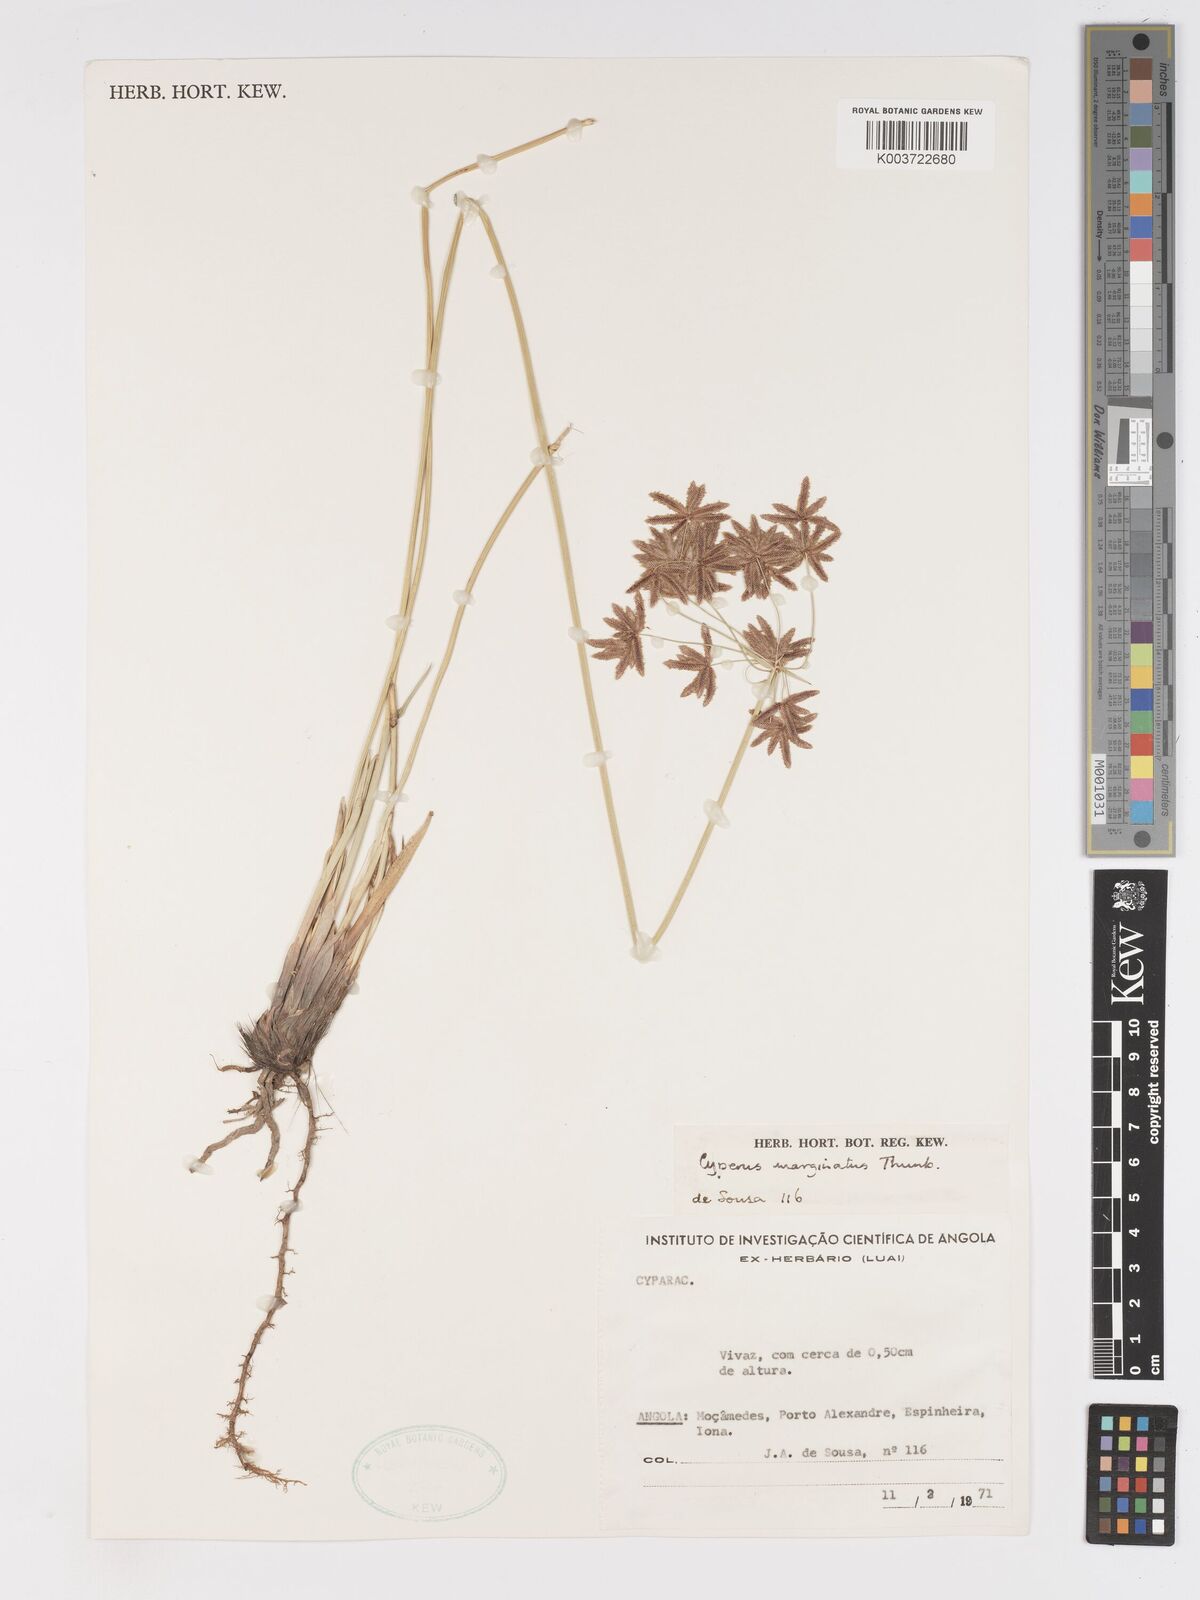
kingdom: Plantae
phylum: Tracheophyta
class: Liliopsida
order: Poales
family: Cyperaceae
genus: Cyperus
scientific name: Cyperus marginatus
